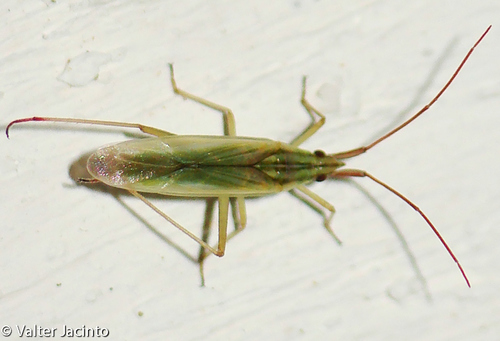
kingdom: Animalia
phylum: Arthropoda
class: Insecta
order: Hemiptera
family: Miridae
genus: Trigonotylus
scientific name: Trigonotylus caelestialium
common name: Rice leaf bug
